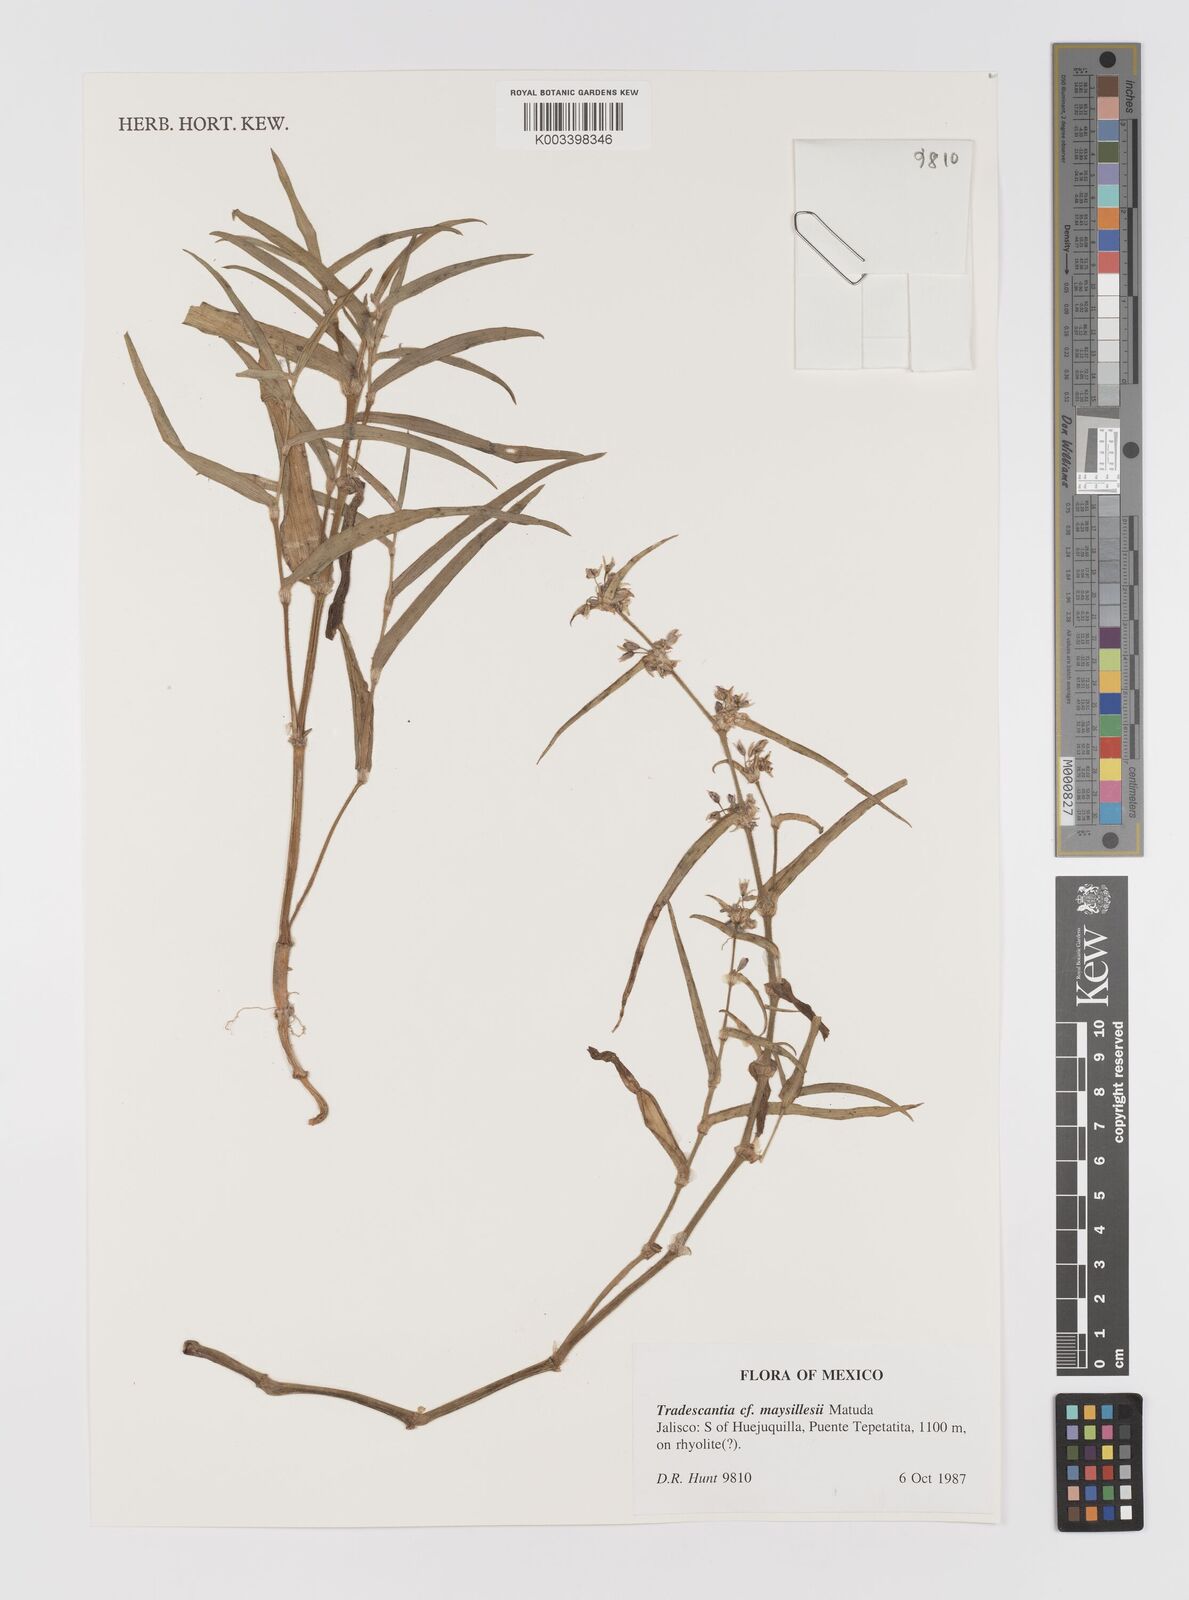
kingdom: Plantae
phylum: Tracheophyta
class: Liliopsida
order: Commelinales
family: Commelinaceae
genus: Tradescantia
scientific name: Tradescantia maysillesii
